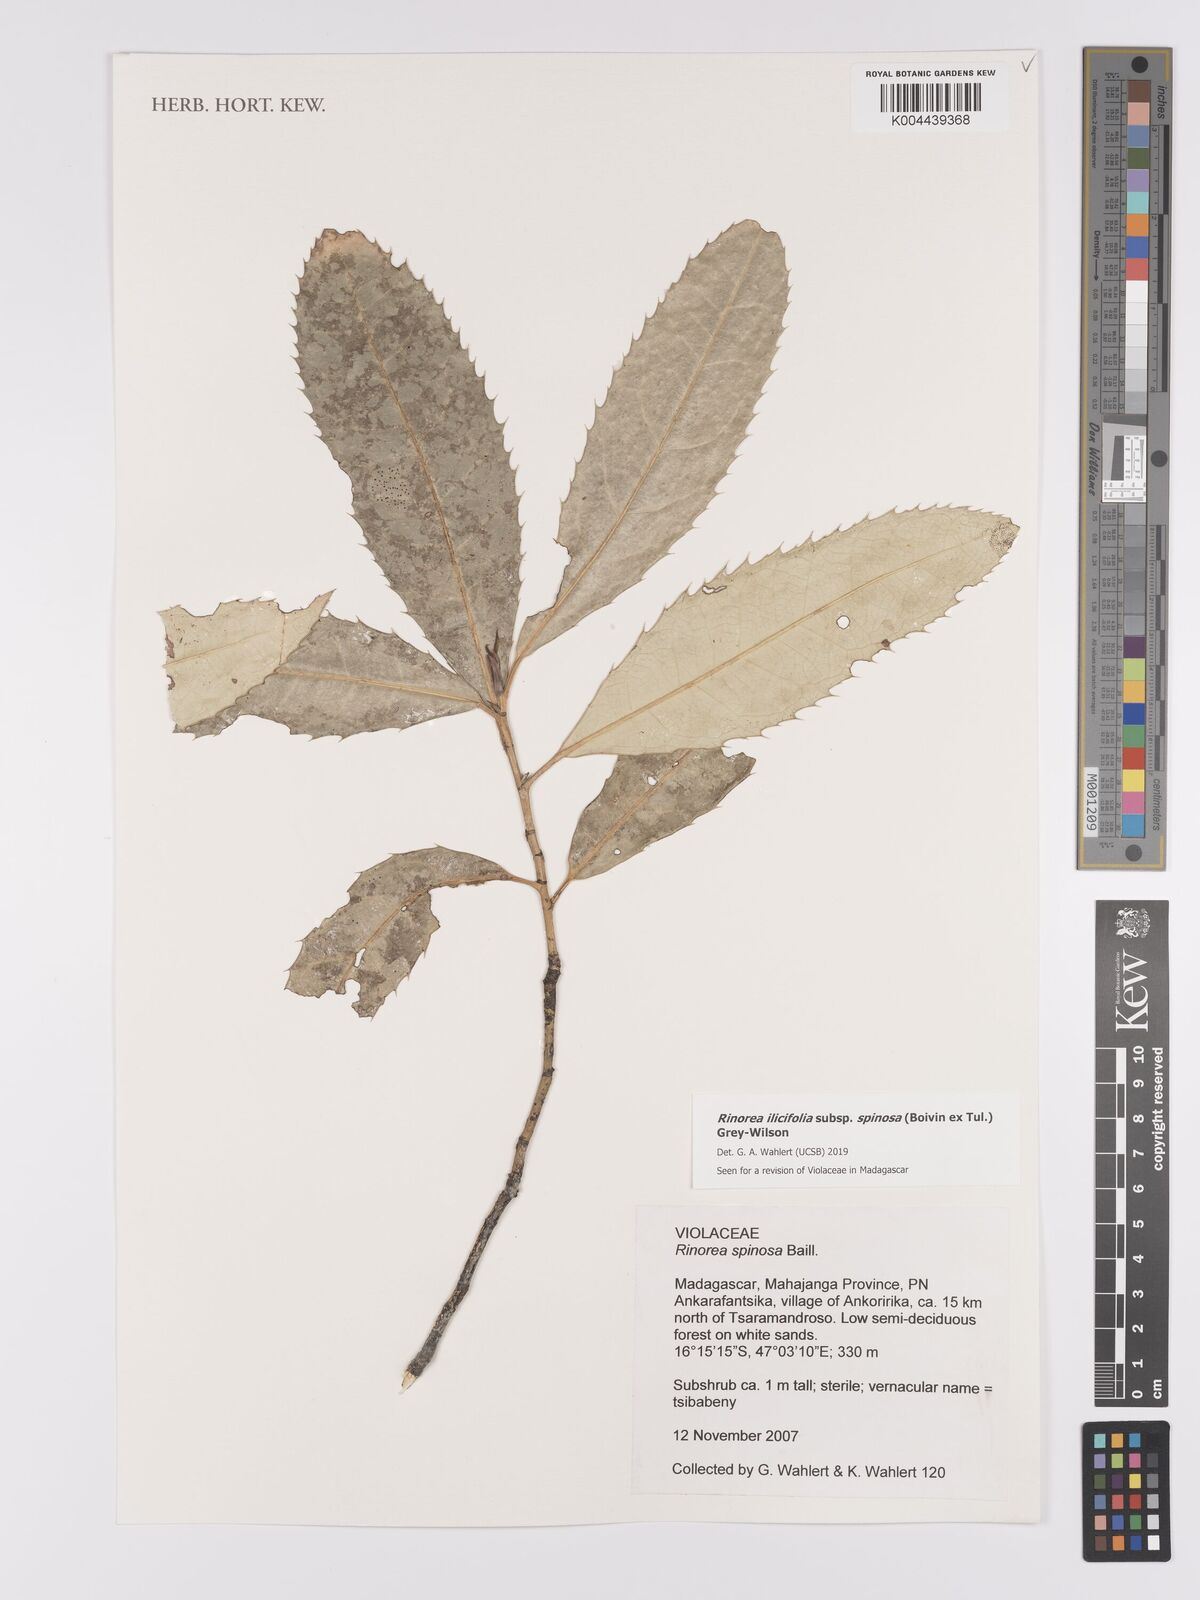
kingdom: Plantae
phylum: Tracheophyta
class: Magnoliopsida
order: Malpighiales
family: Violaceae
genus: Rinorea
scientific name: Rinorea spinosa
